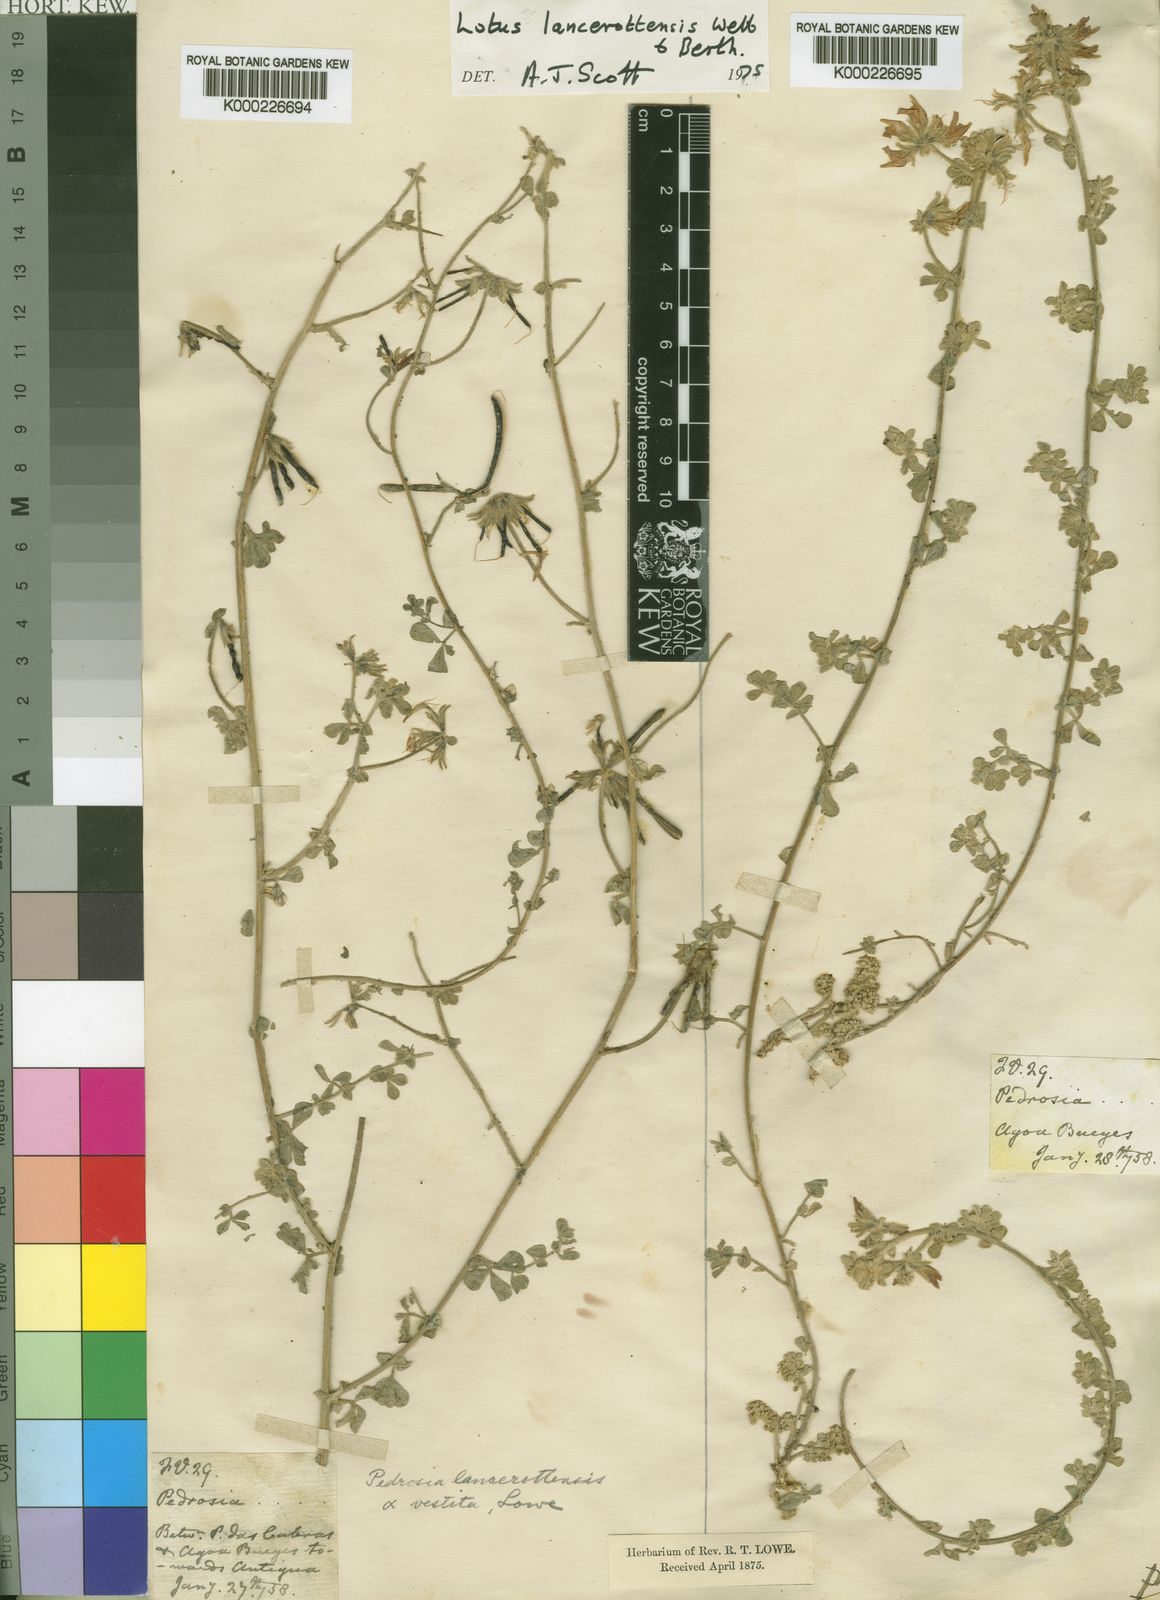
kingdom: Plantae
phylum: Tracheophyta
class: Magnoliopsida
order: Fabales
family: Fabaceae
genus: Lotus
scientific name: Lotus lancerottensis
